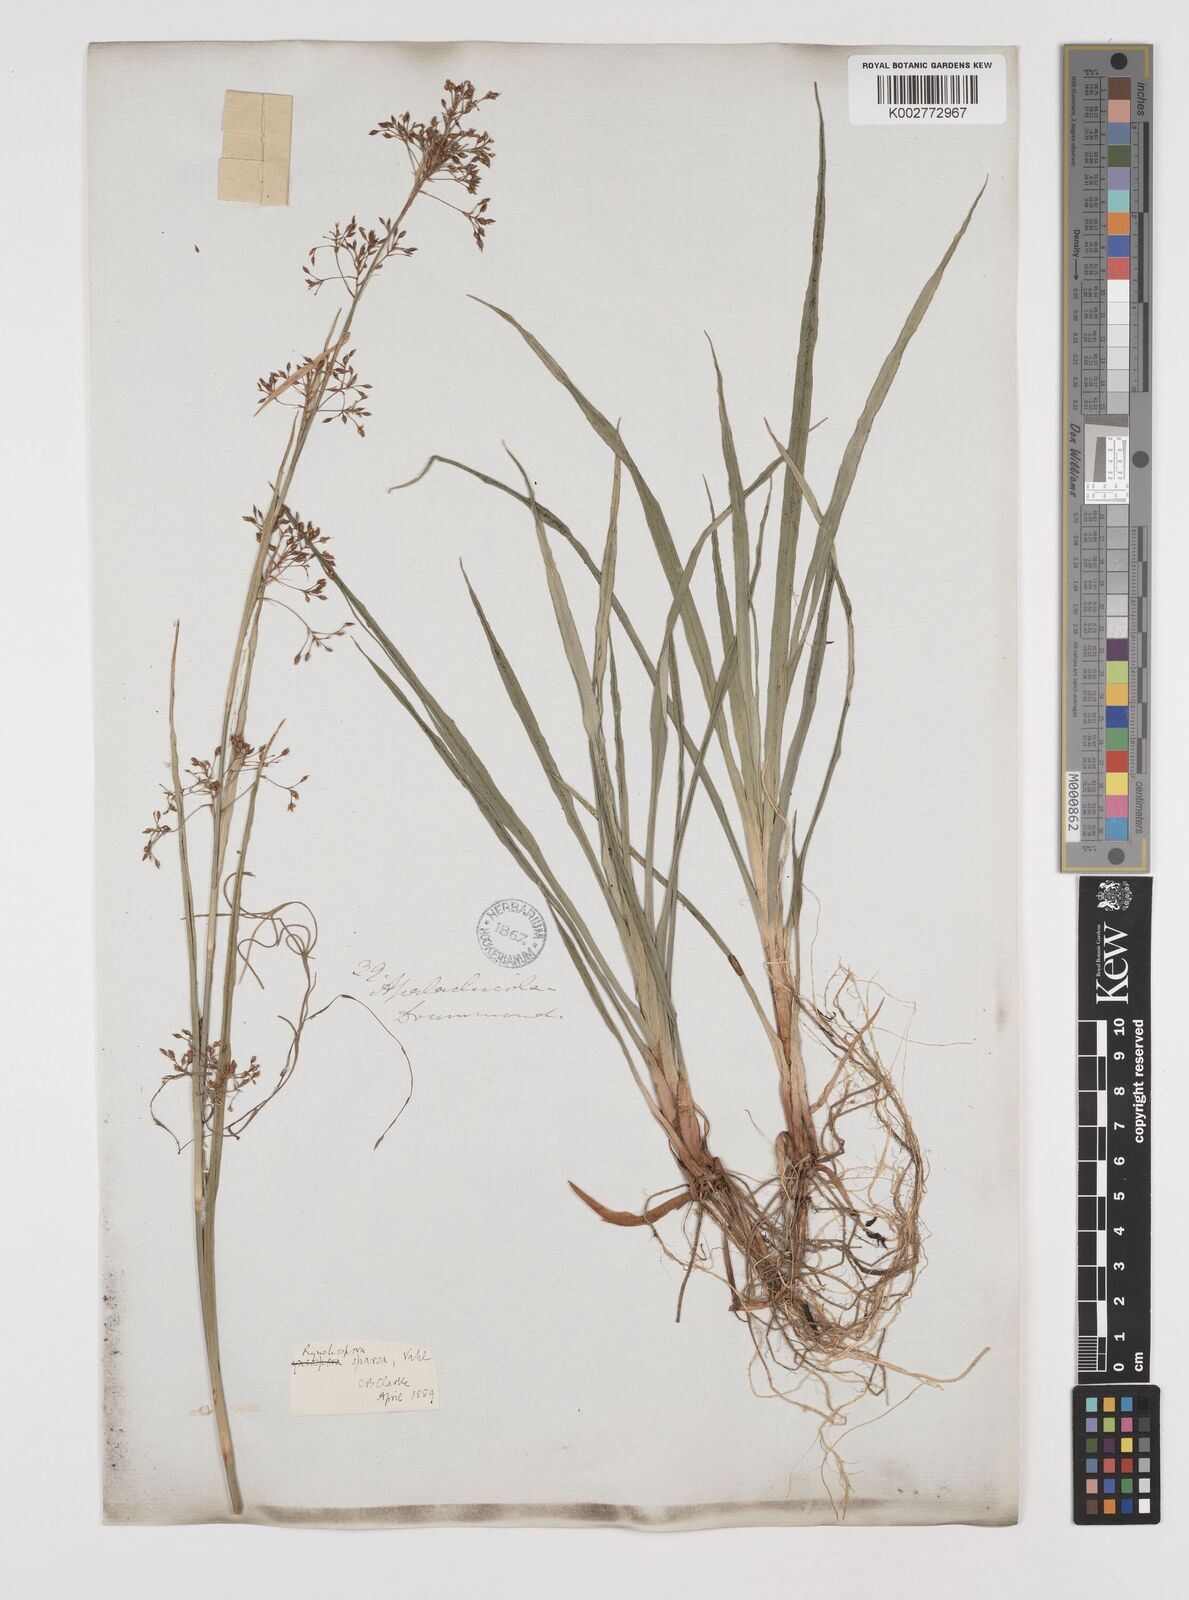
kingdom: Plantae
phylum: Tracheophyta
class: Liliopsida
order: Poales
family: Cyperaceae
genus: Rhynchospora
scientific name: Rhynchospora miliacea
